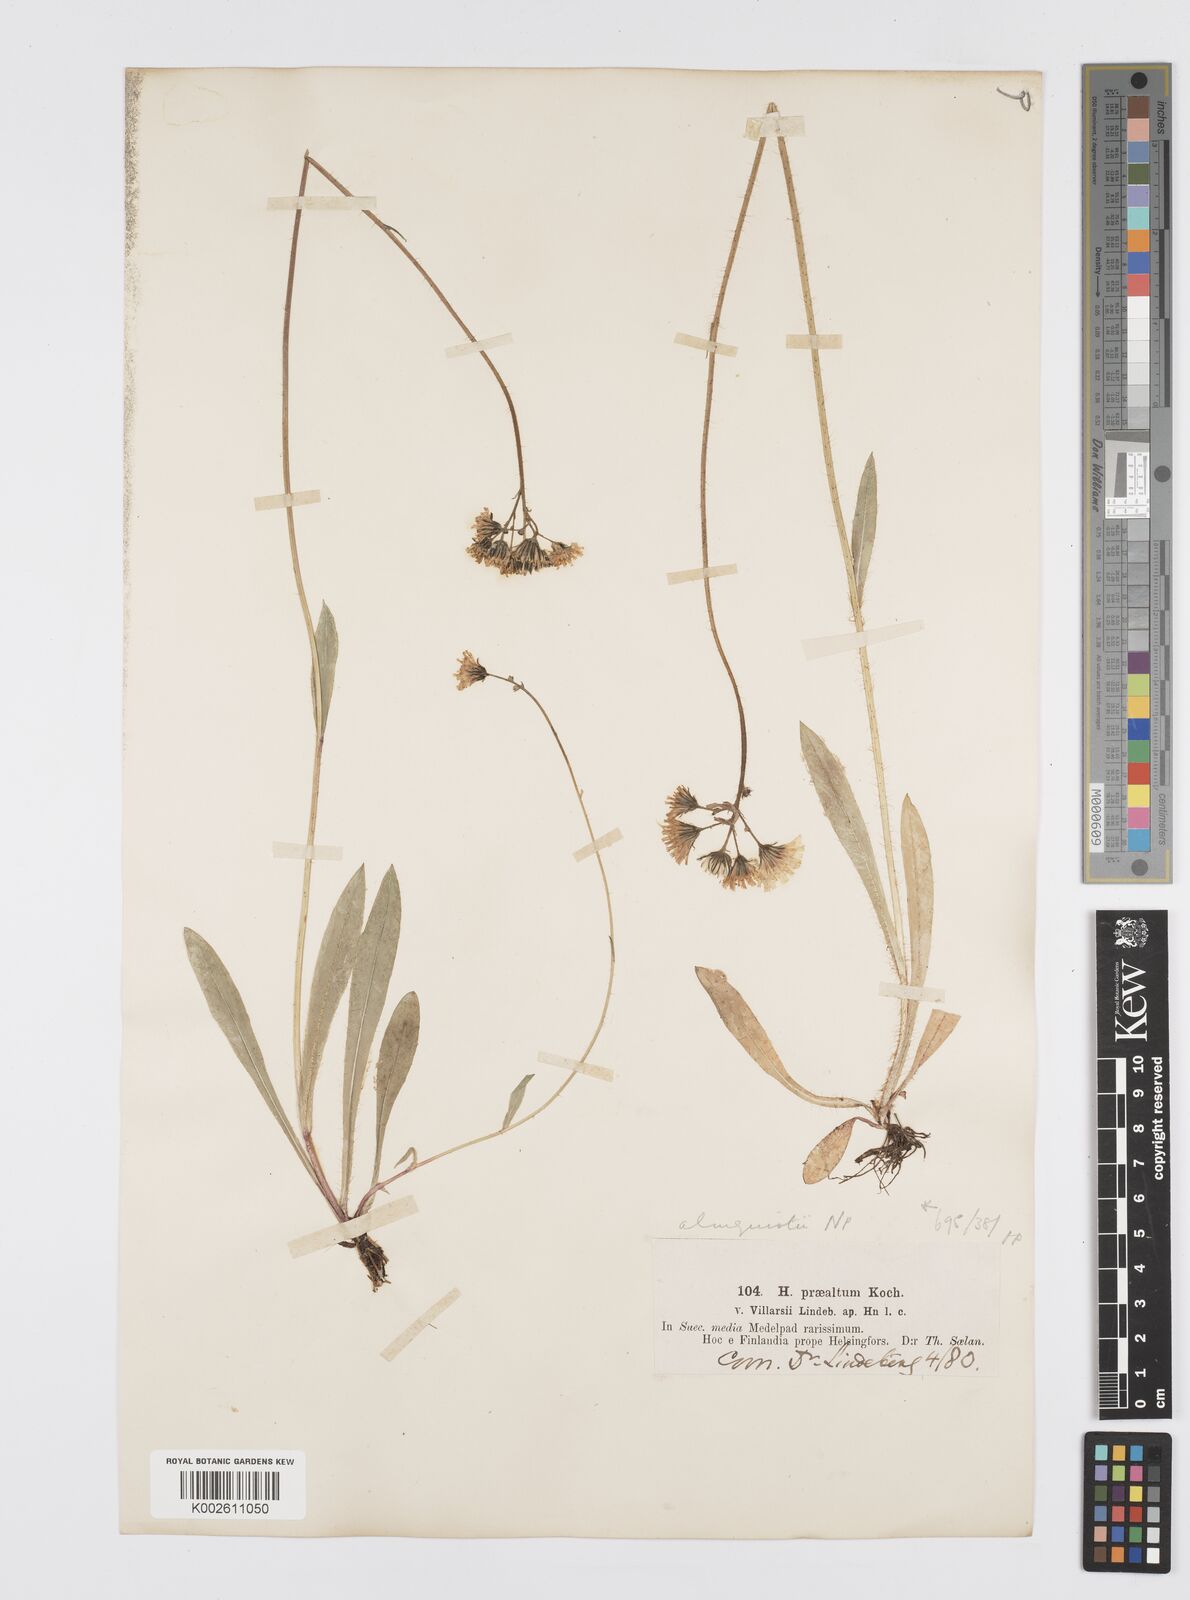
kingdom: Plantae
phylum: Tracheophyta
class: Magnoliopsida
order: Asterales
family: Asteraceae
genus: Pilosella
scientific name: Pilosella piloselloides
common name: Glaucous king-devil
